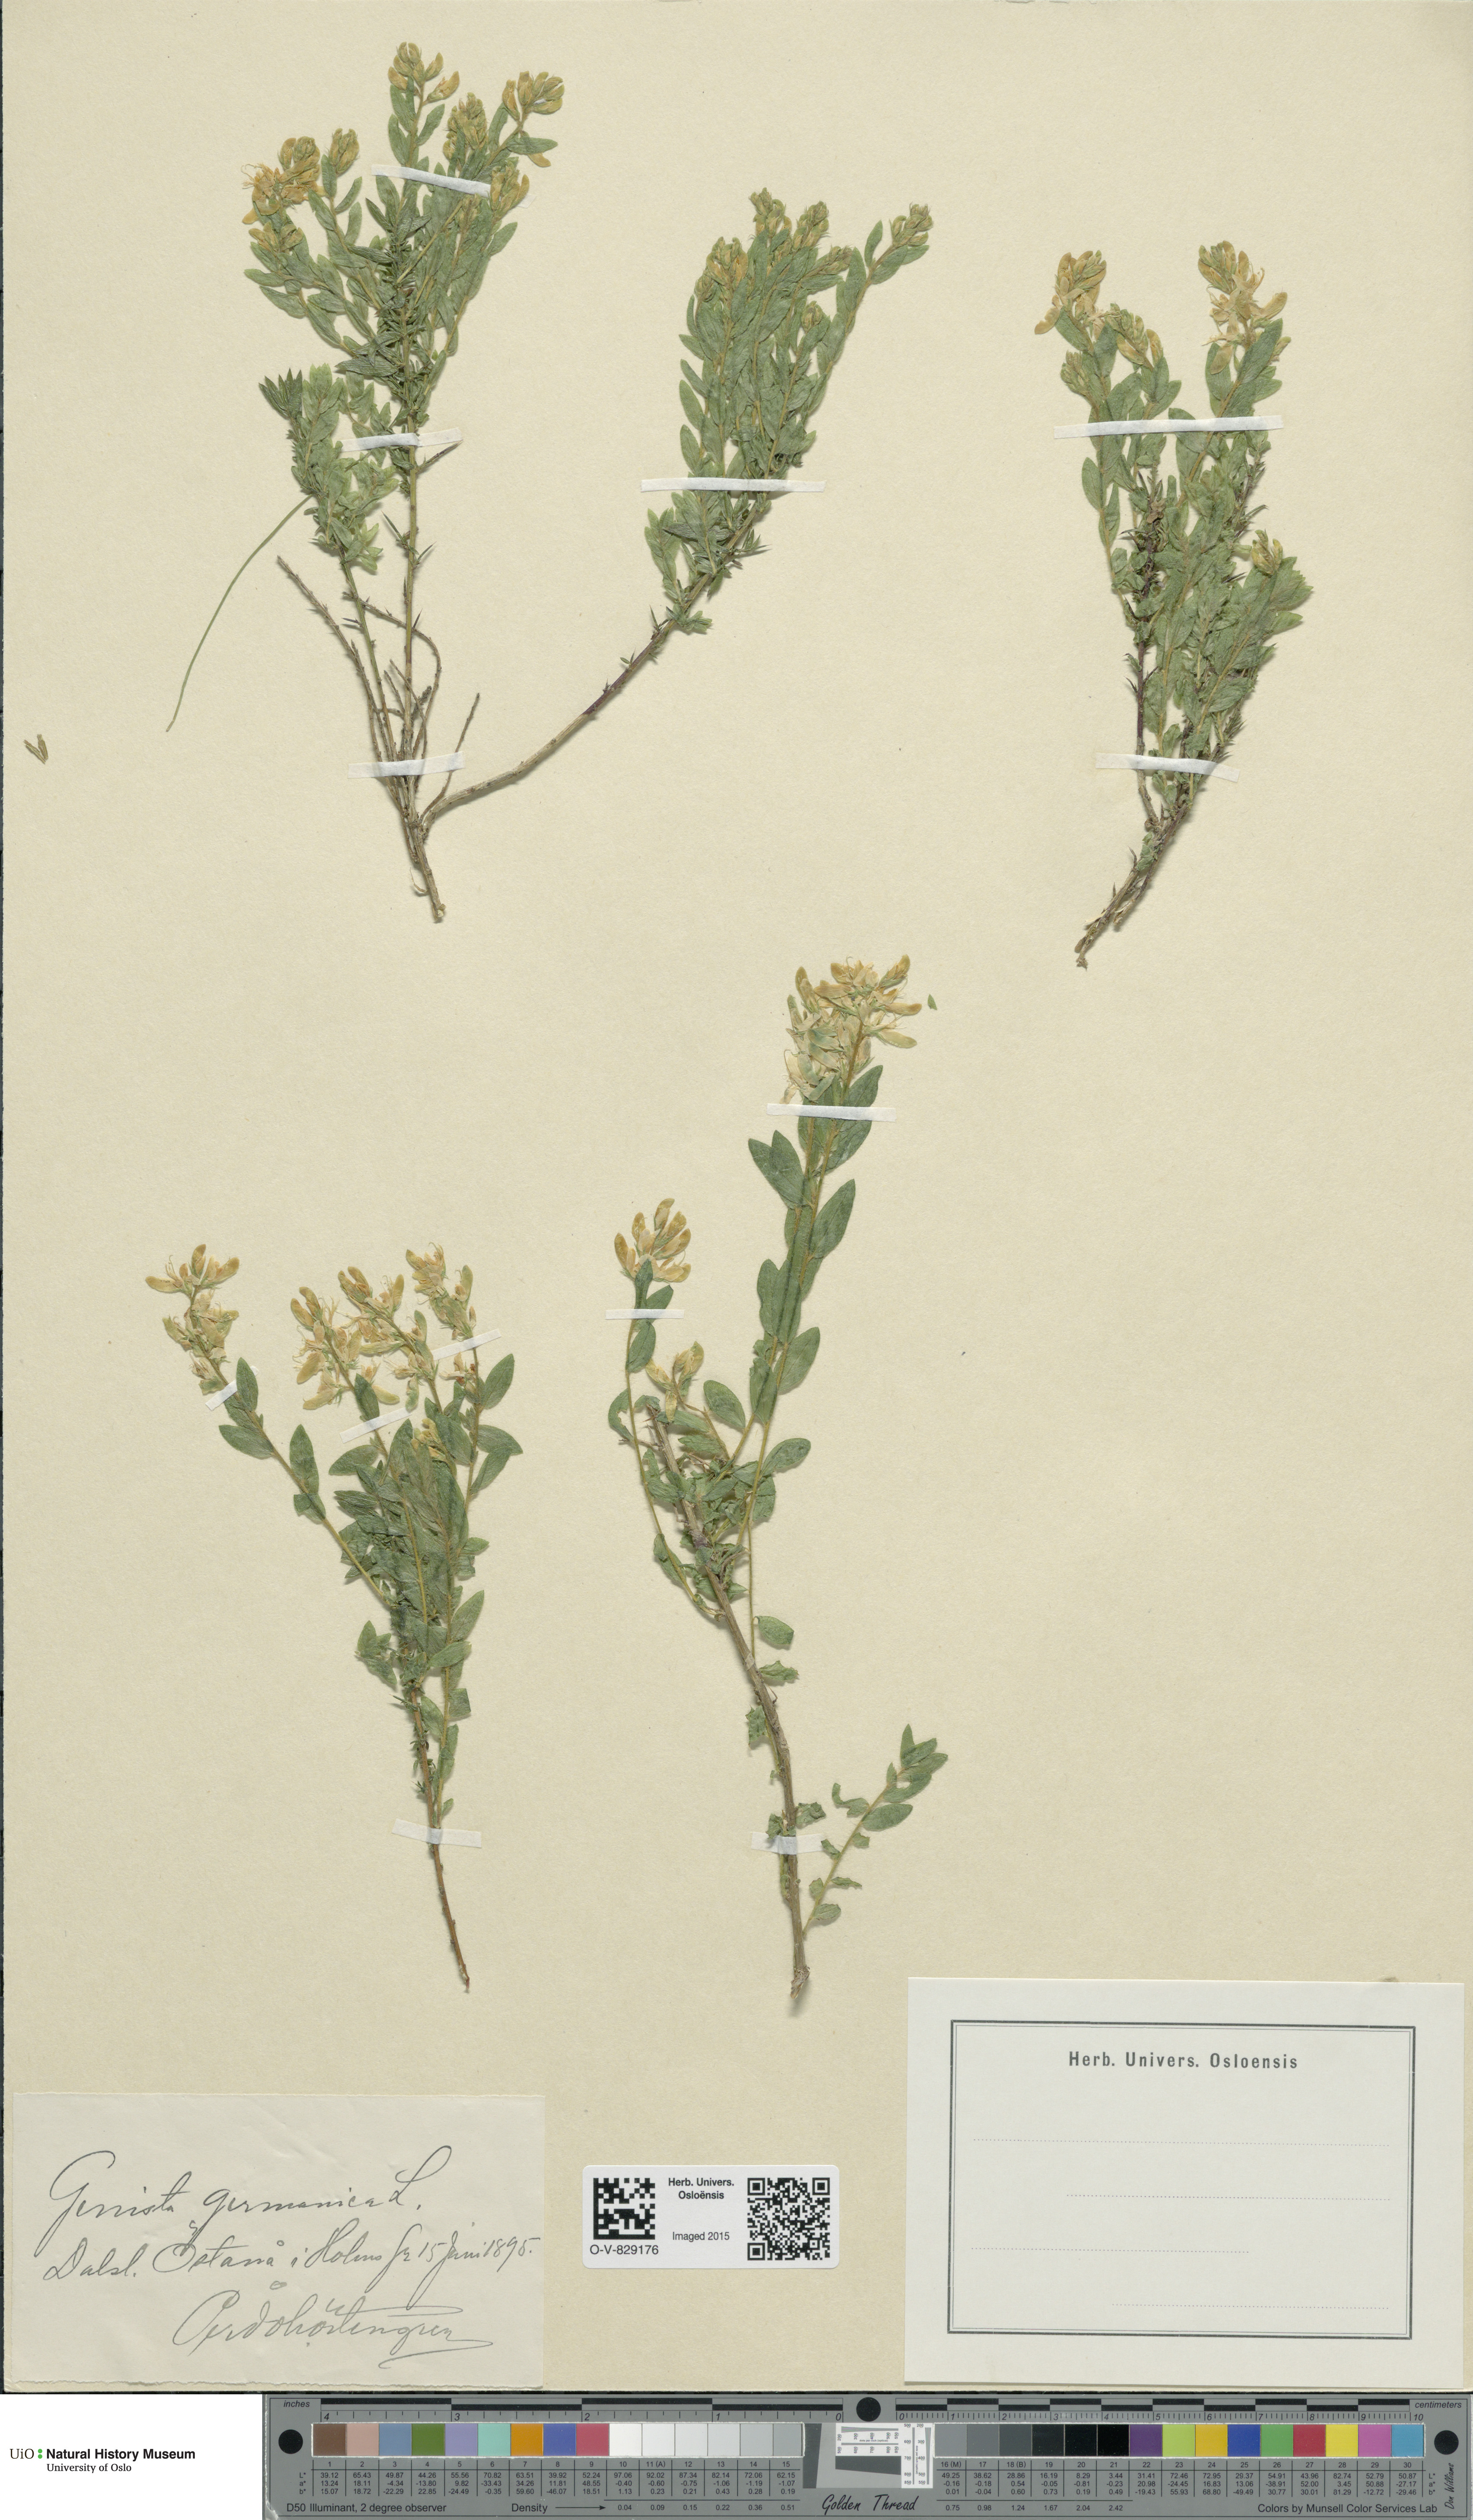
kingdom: Plantae
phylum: Tracheophyta
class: Magnoliopsida
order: Fabales
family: Fabaceae
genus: Genista
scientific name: Genista germanica
